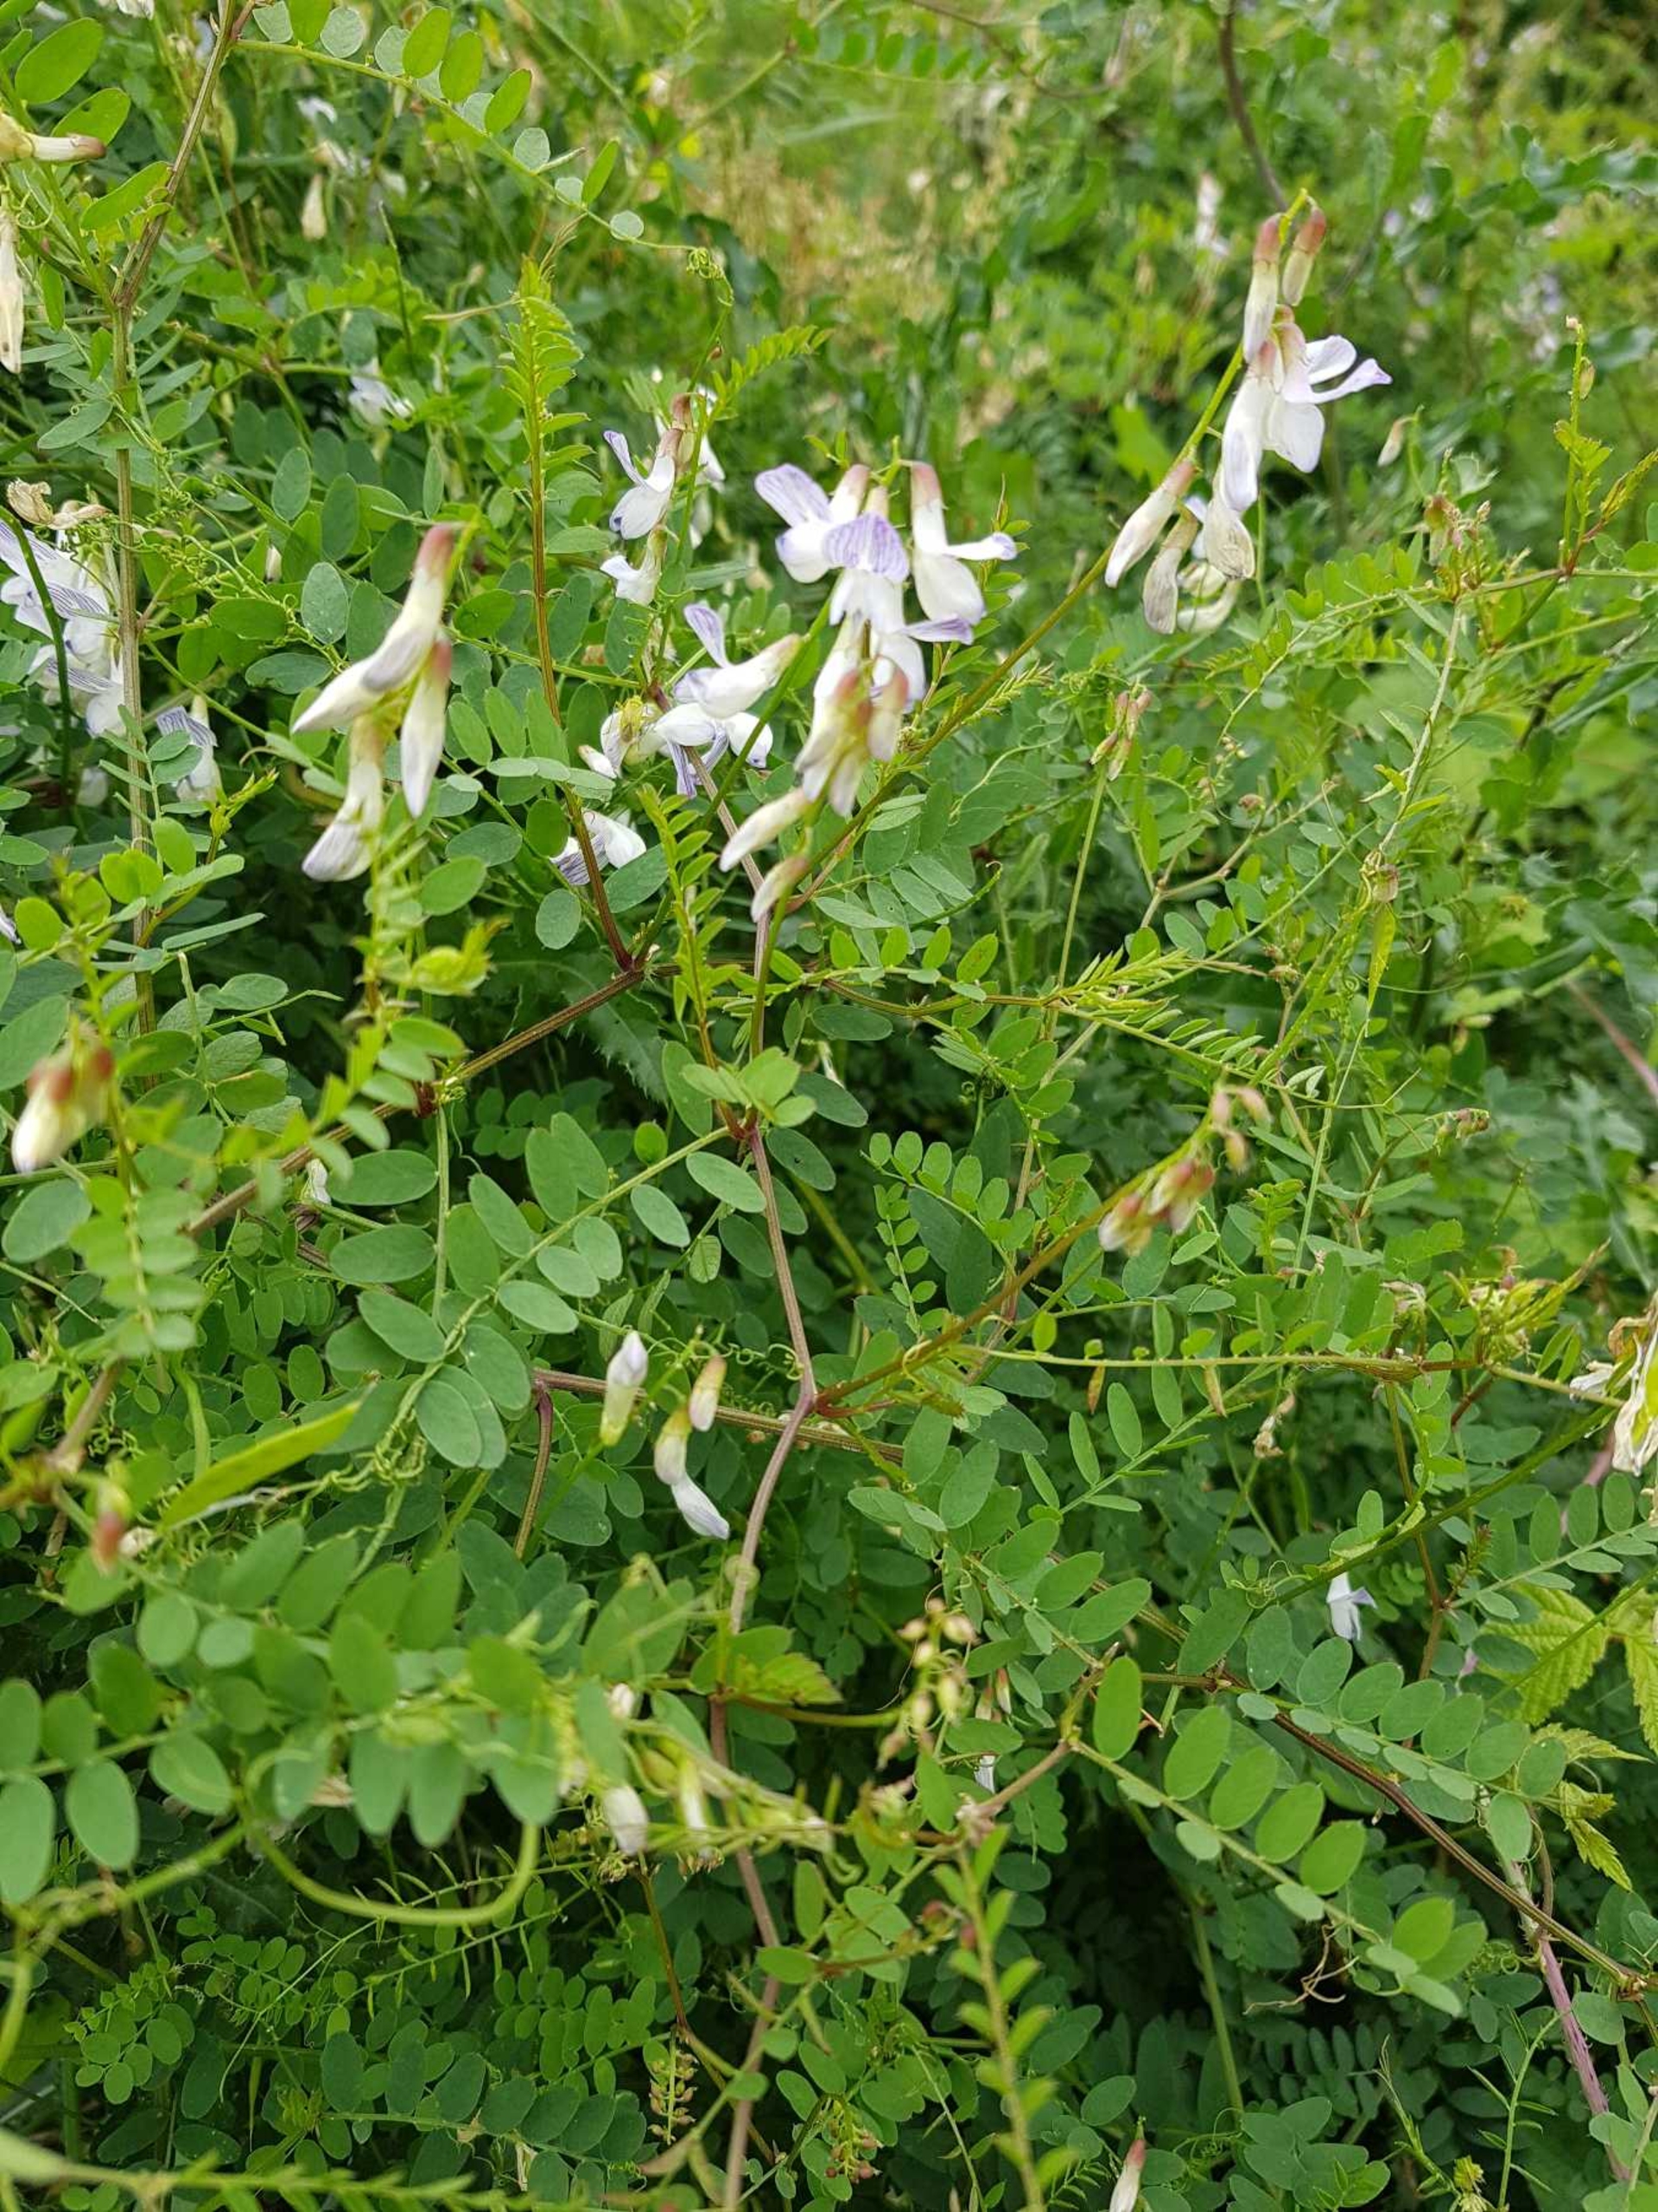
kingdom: Plantae
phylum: Tracheophyta
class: Magnoliopsida
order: Fabales
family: Fabaceae
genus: Vicia
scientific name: Vicia sylvatica
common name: Skov-vikke
